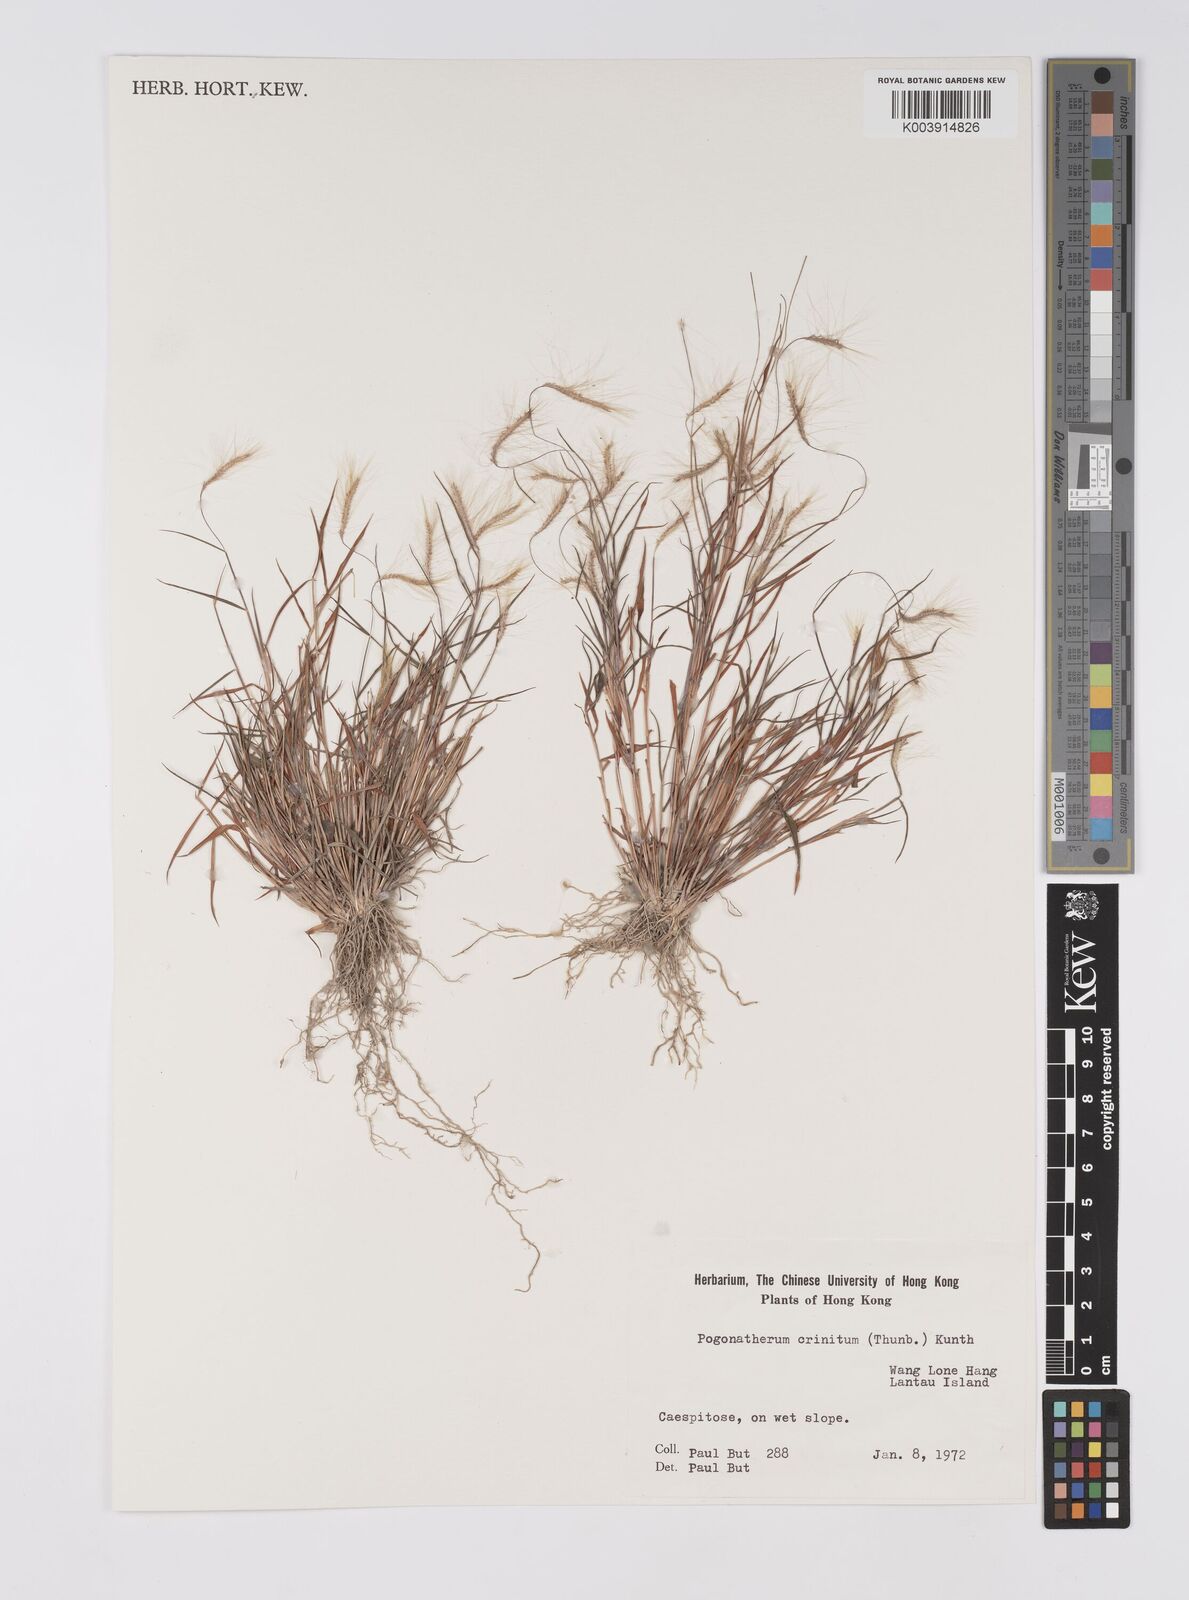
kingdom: Plantae
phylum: Tracheophyta
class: Liliopsida
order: Poales
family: Poaceae
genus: Pogonatherum
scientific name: Pogonatherum crinitum
